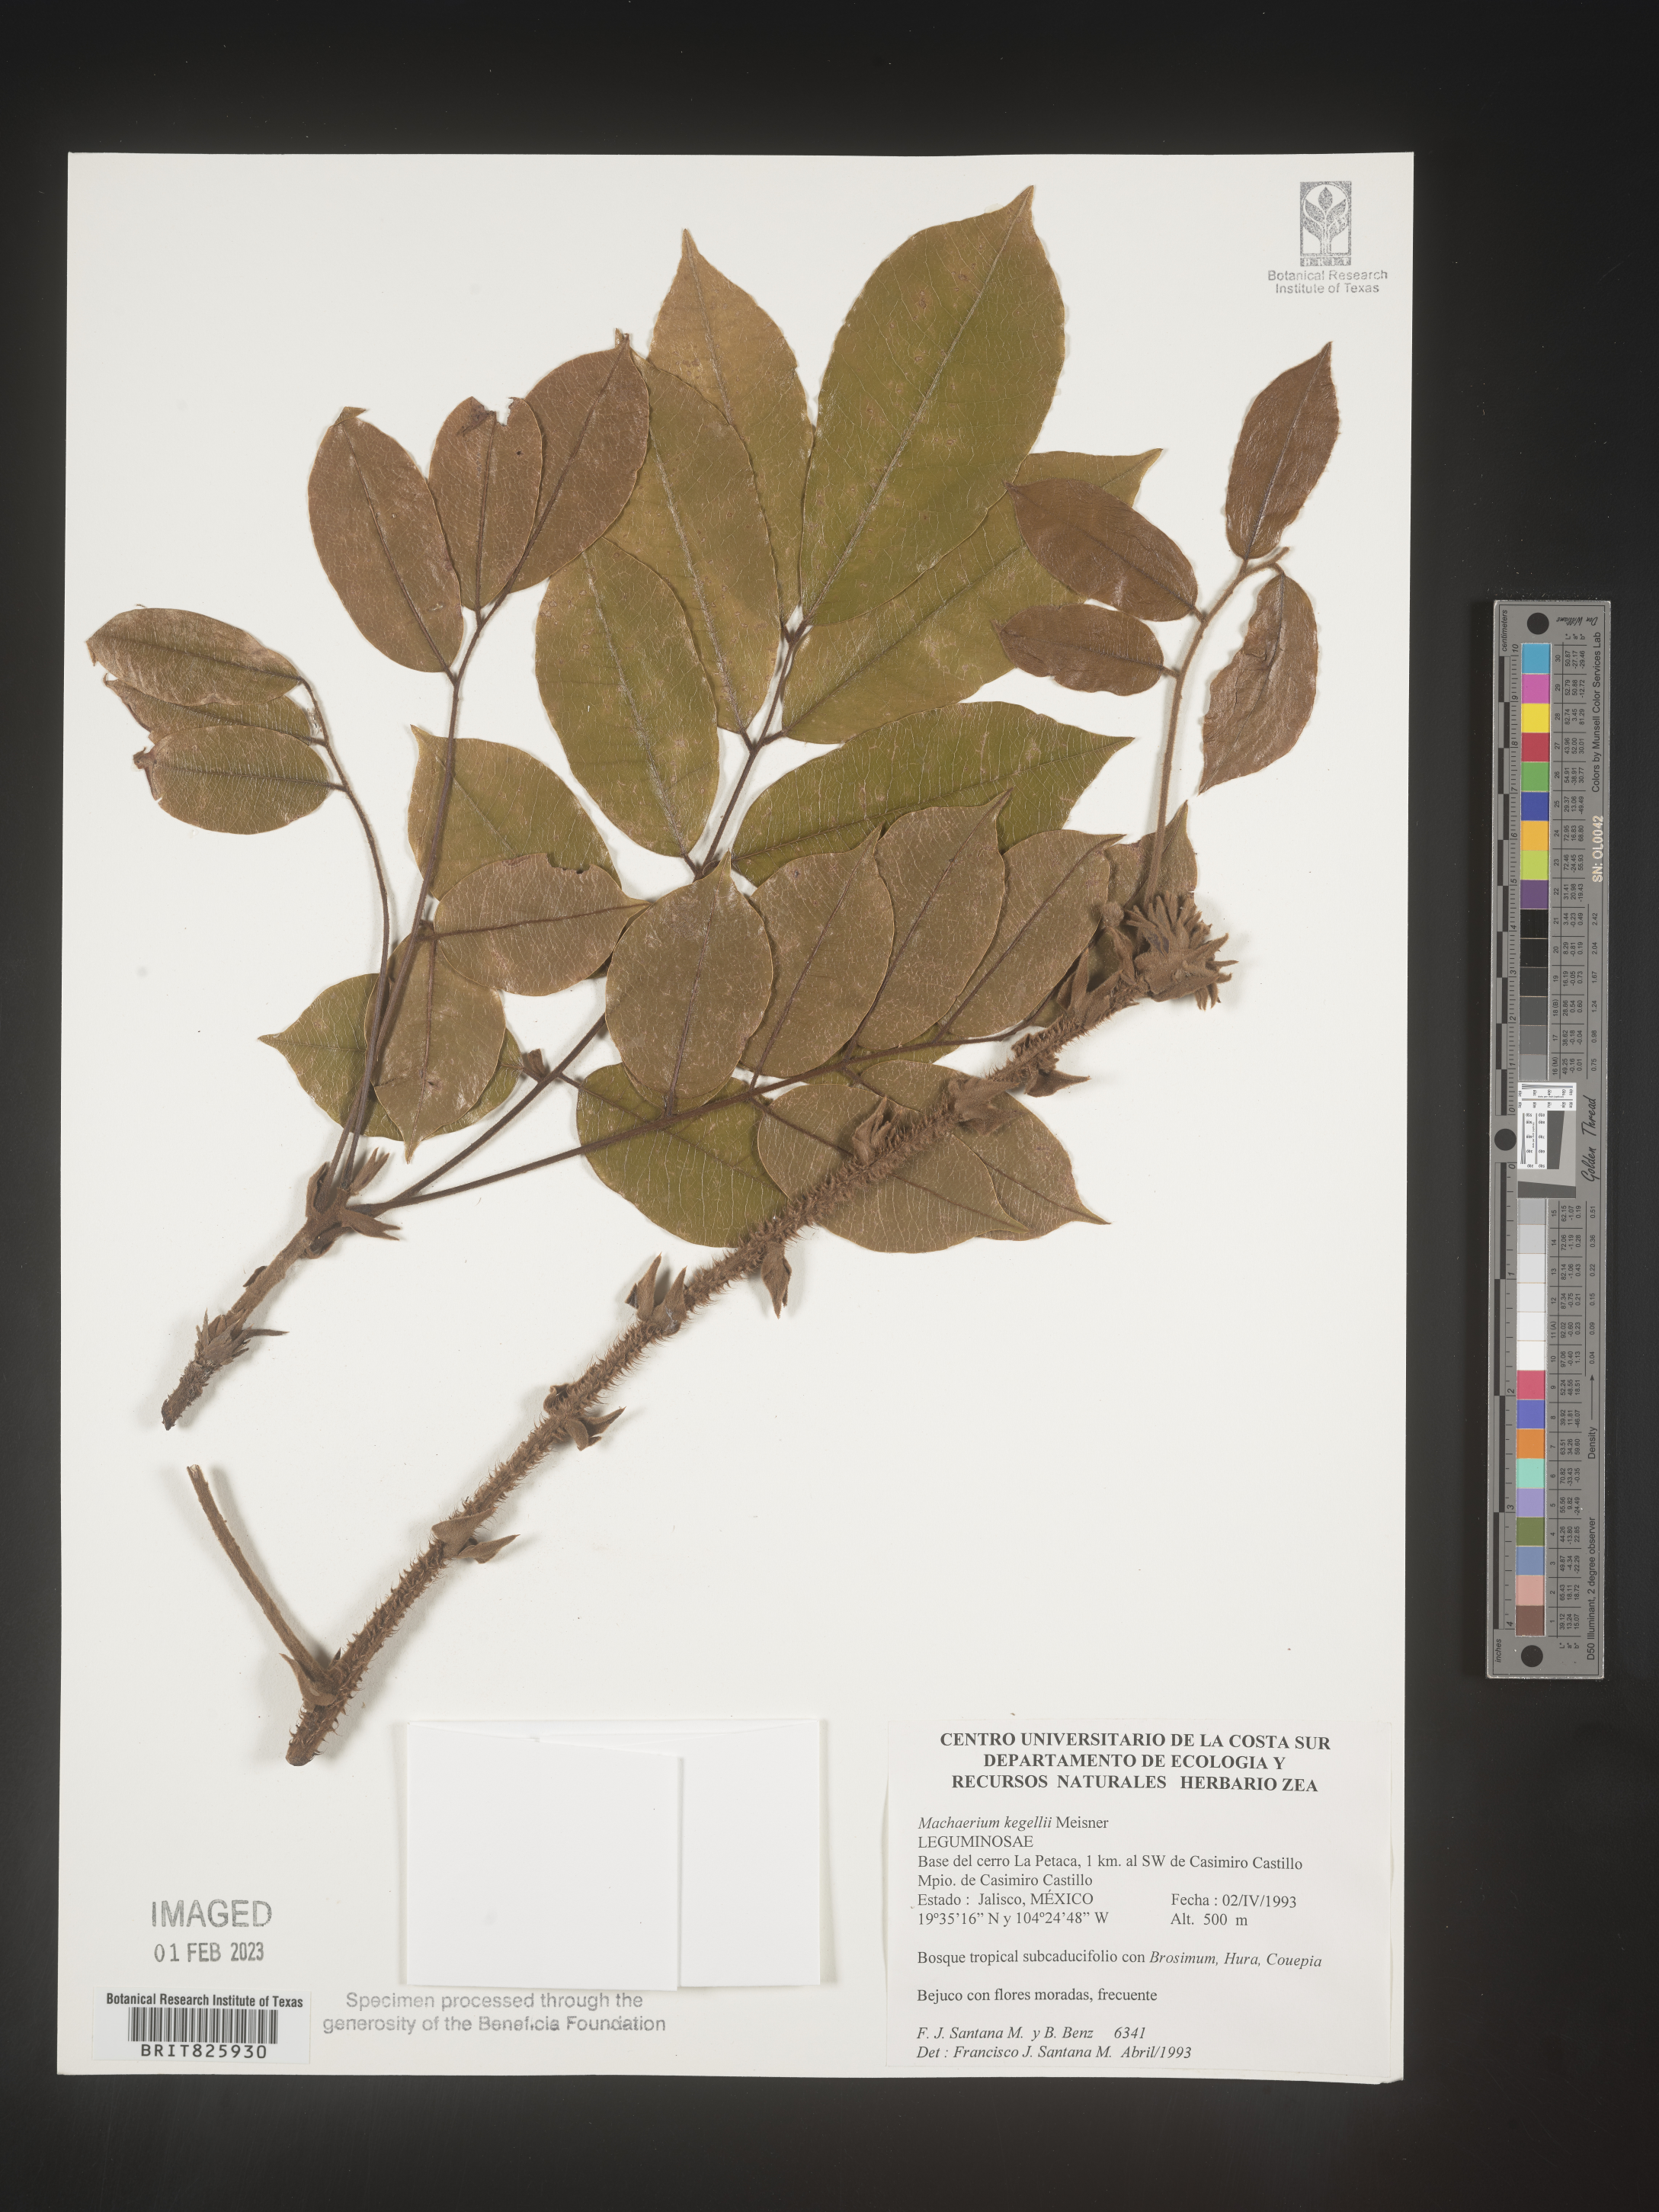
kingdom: Plantae
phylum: Tracheophyta
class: Magnoliopsida
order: Fabales
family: Fabaceae
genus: Machaerium
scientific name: Machaerium
